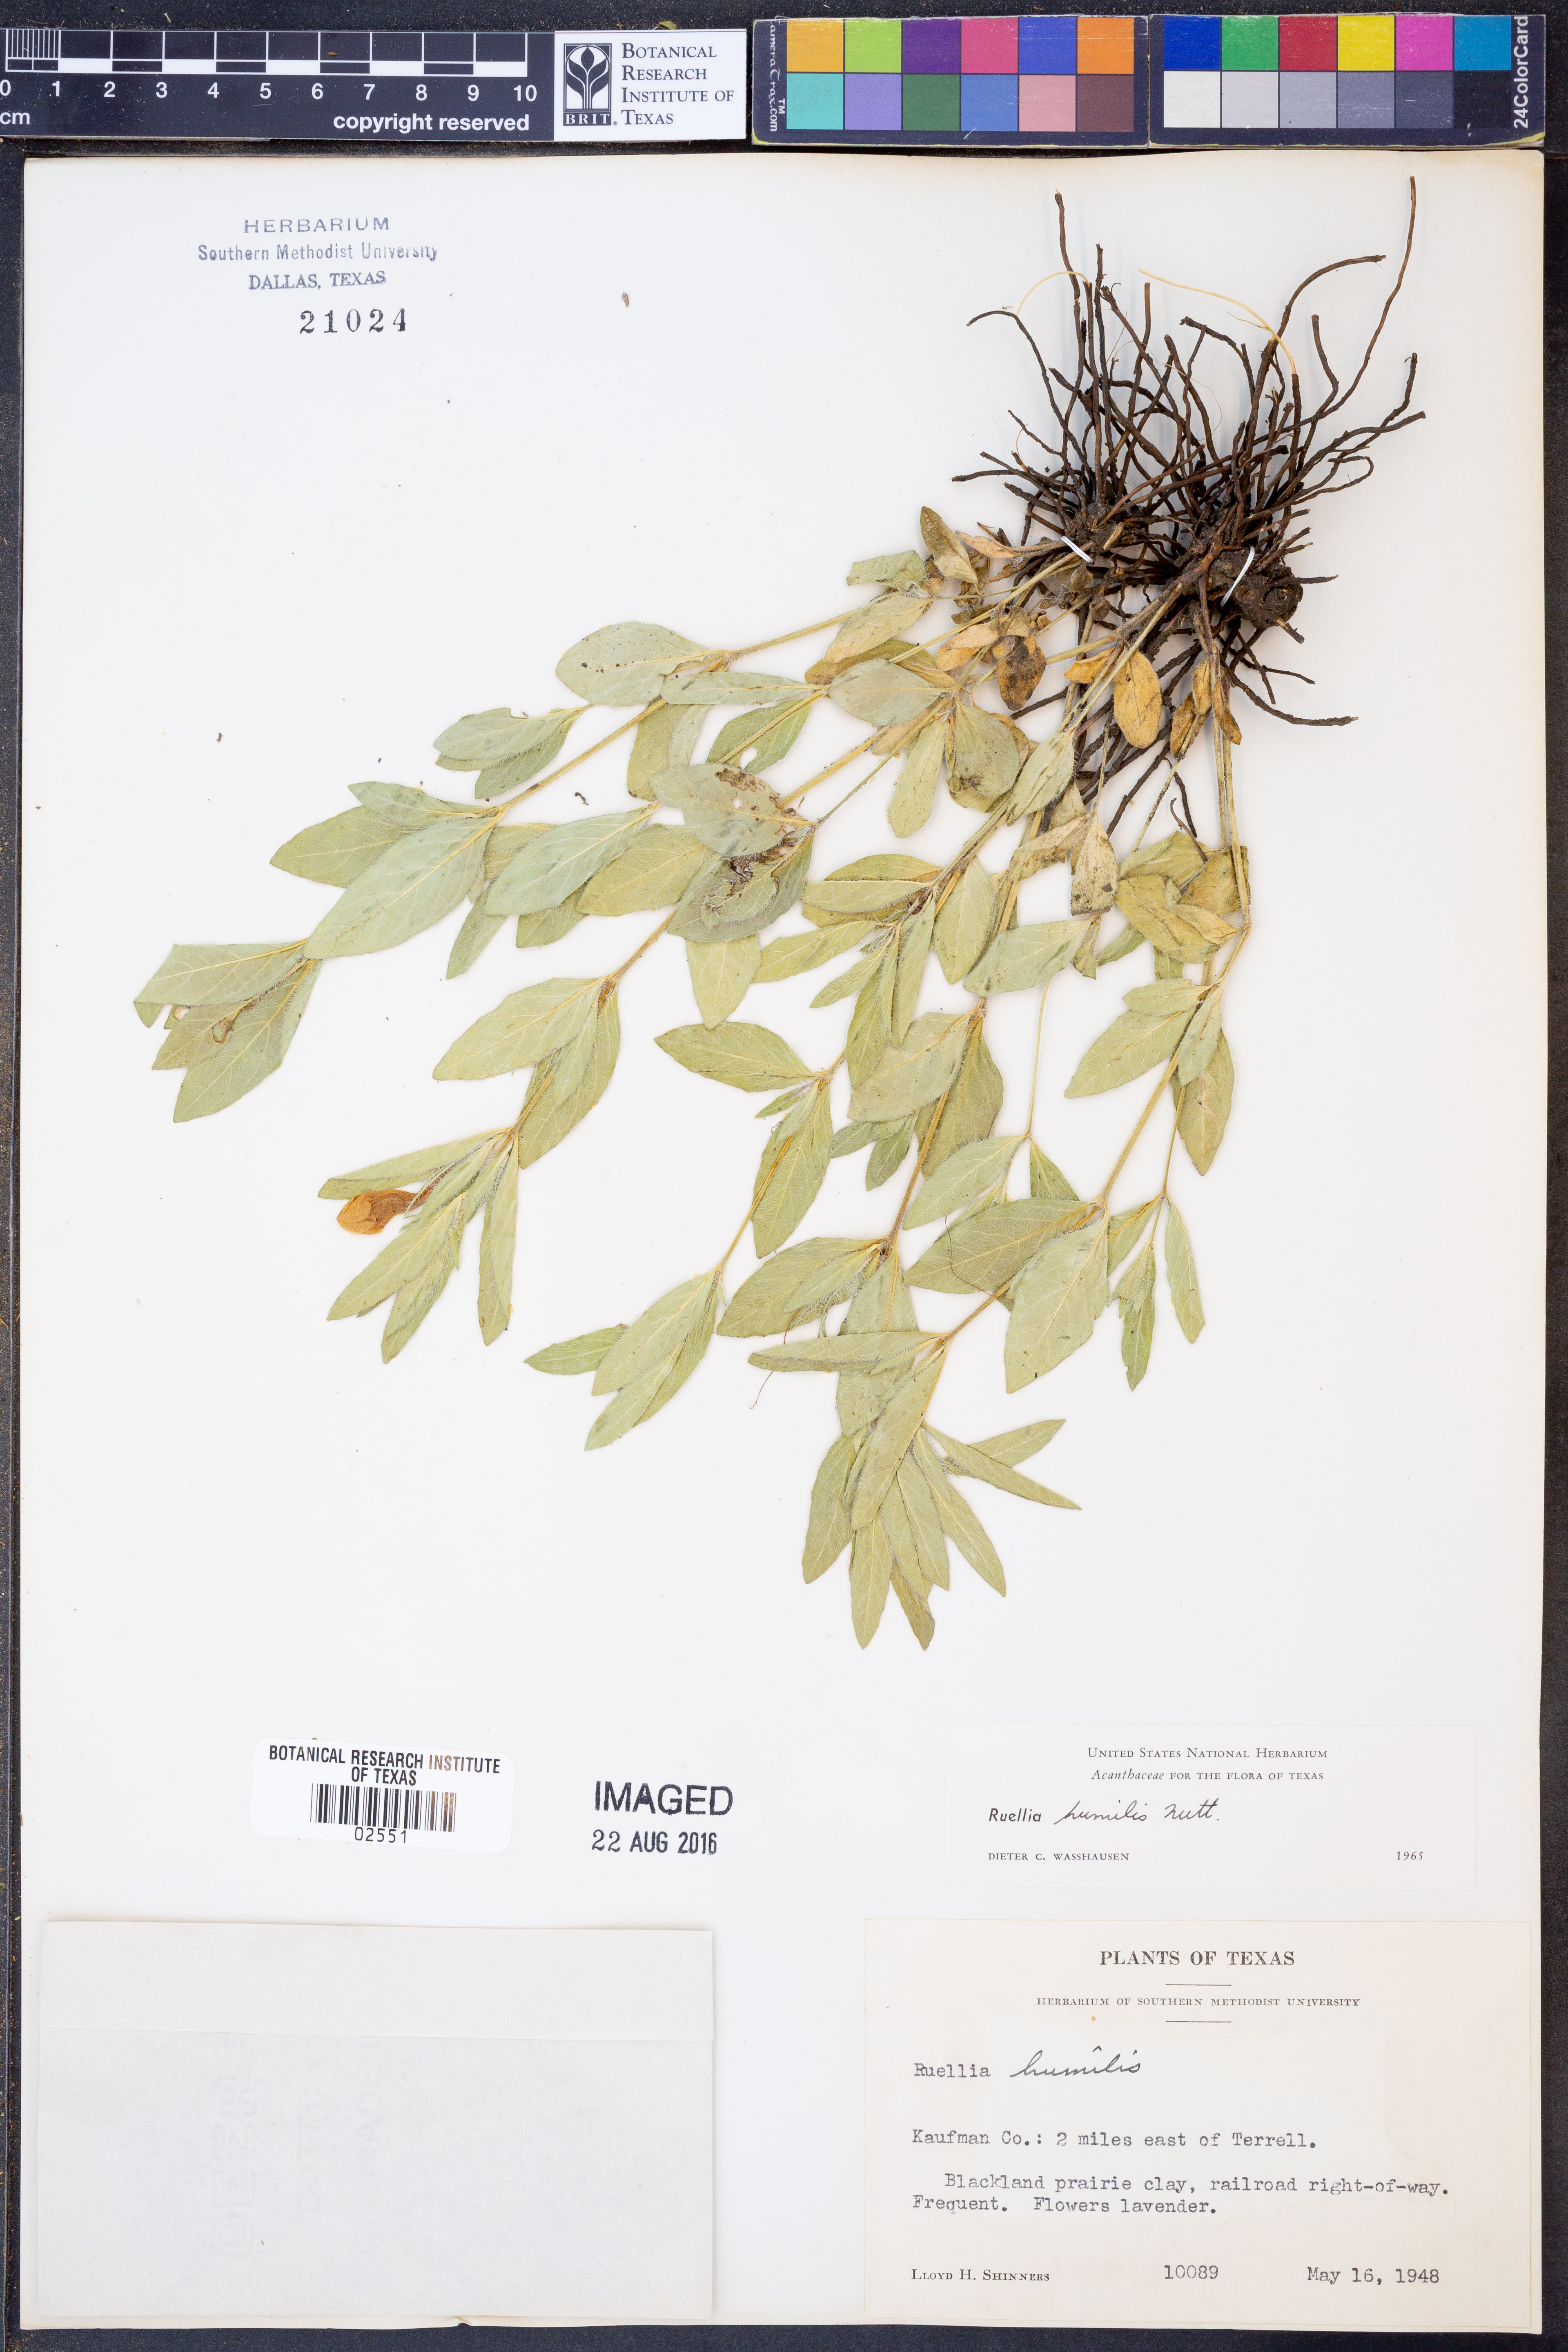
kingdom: Plantae
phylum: Tracheophyta
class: Magnoliopsida
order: Lamiales
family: Acanthaceae
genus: Ruellia
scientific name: Ruellia humilis
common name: Fringe-leaf ruellia
